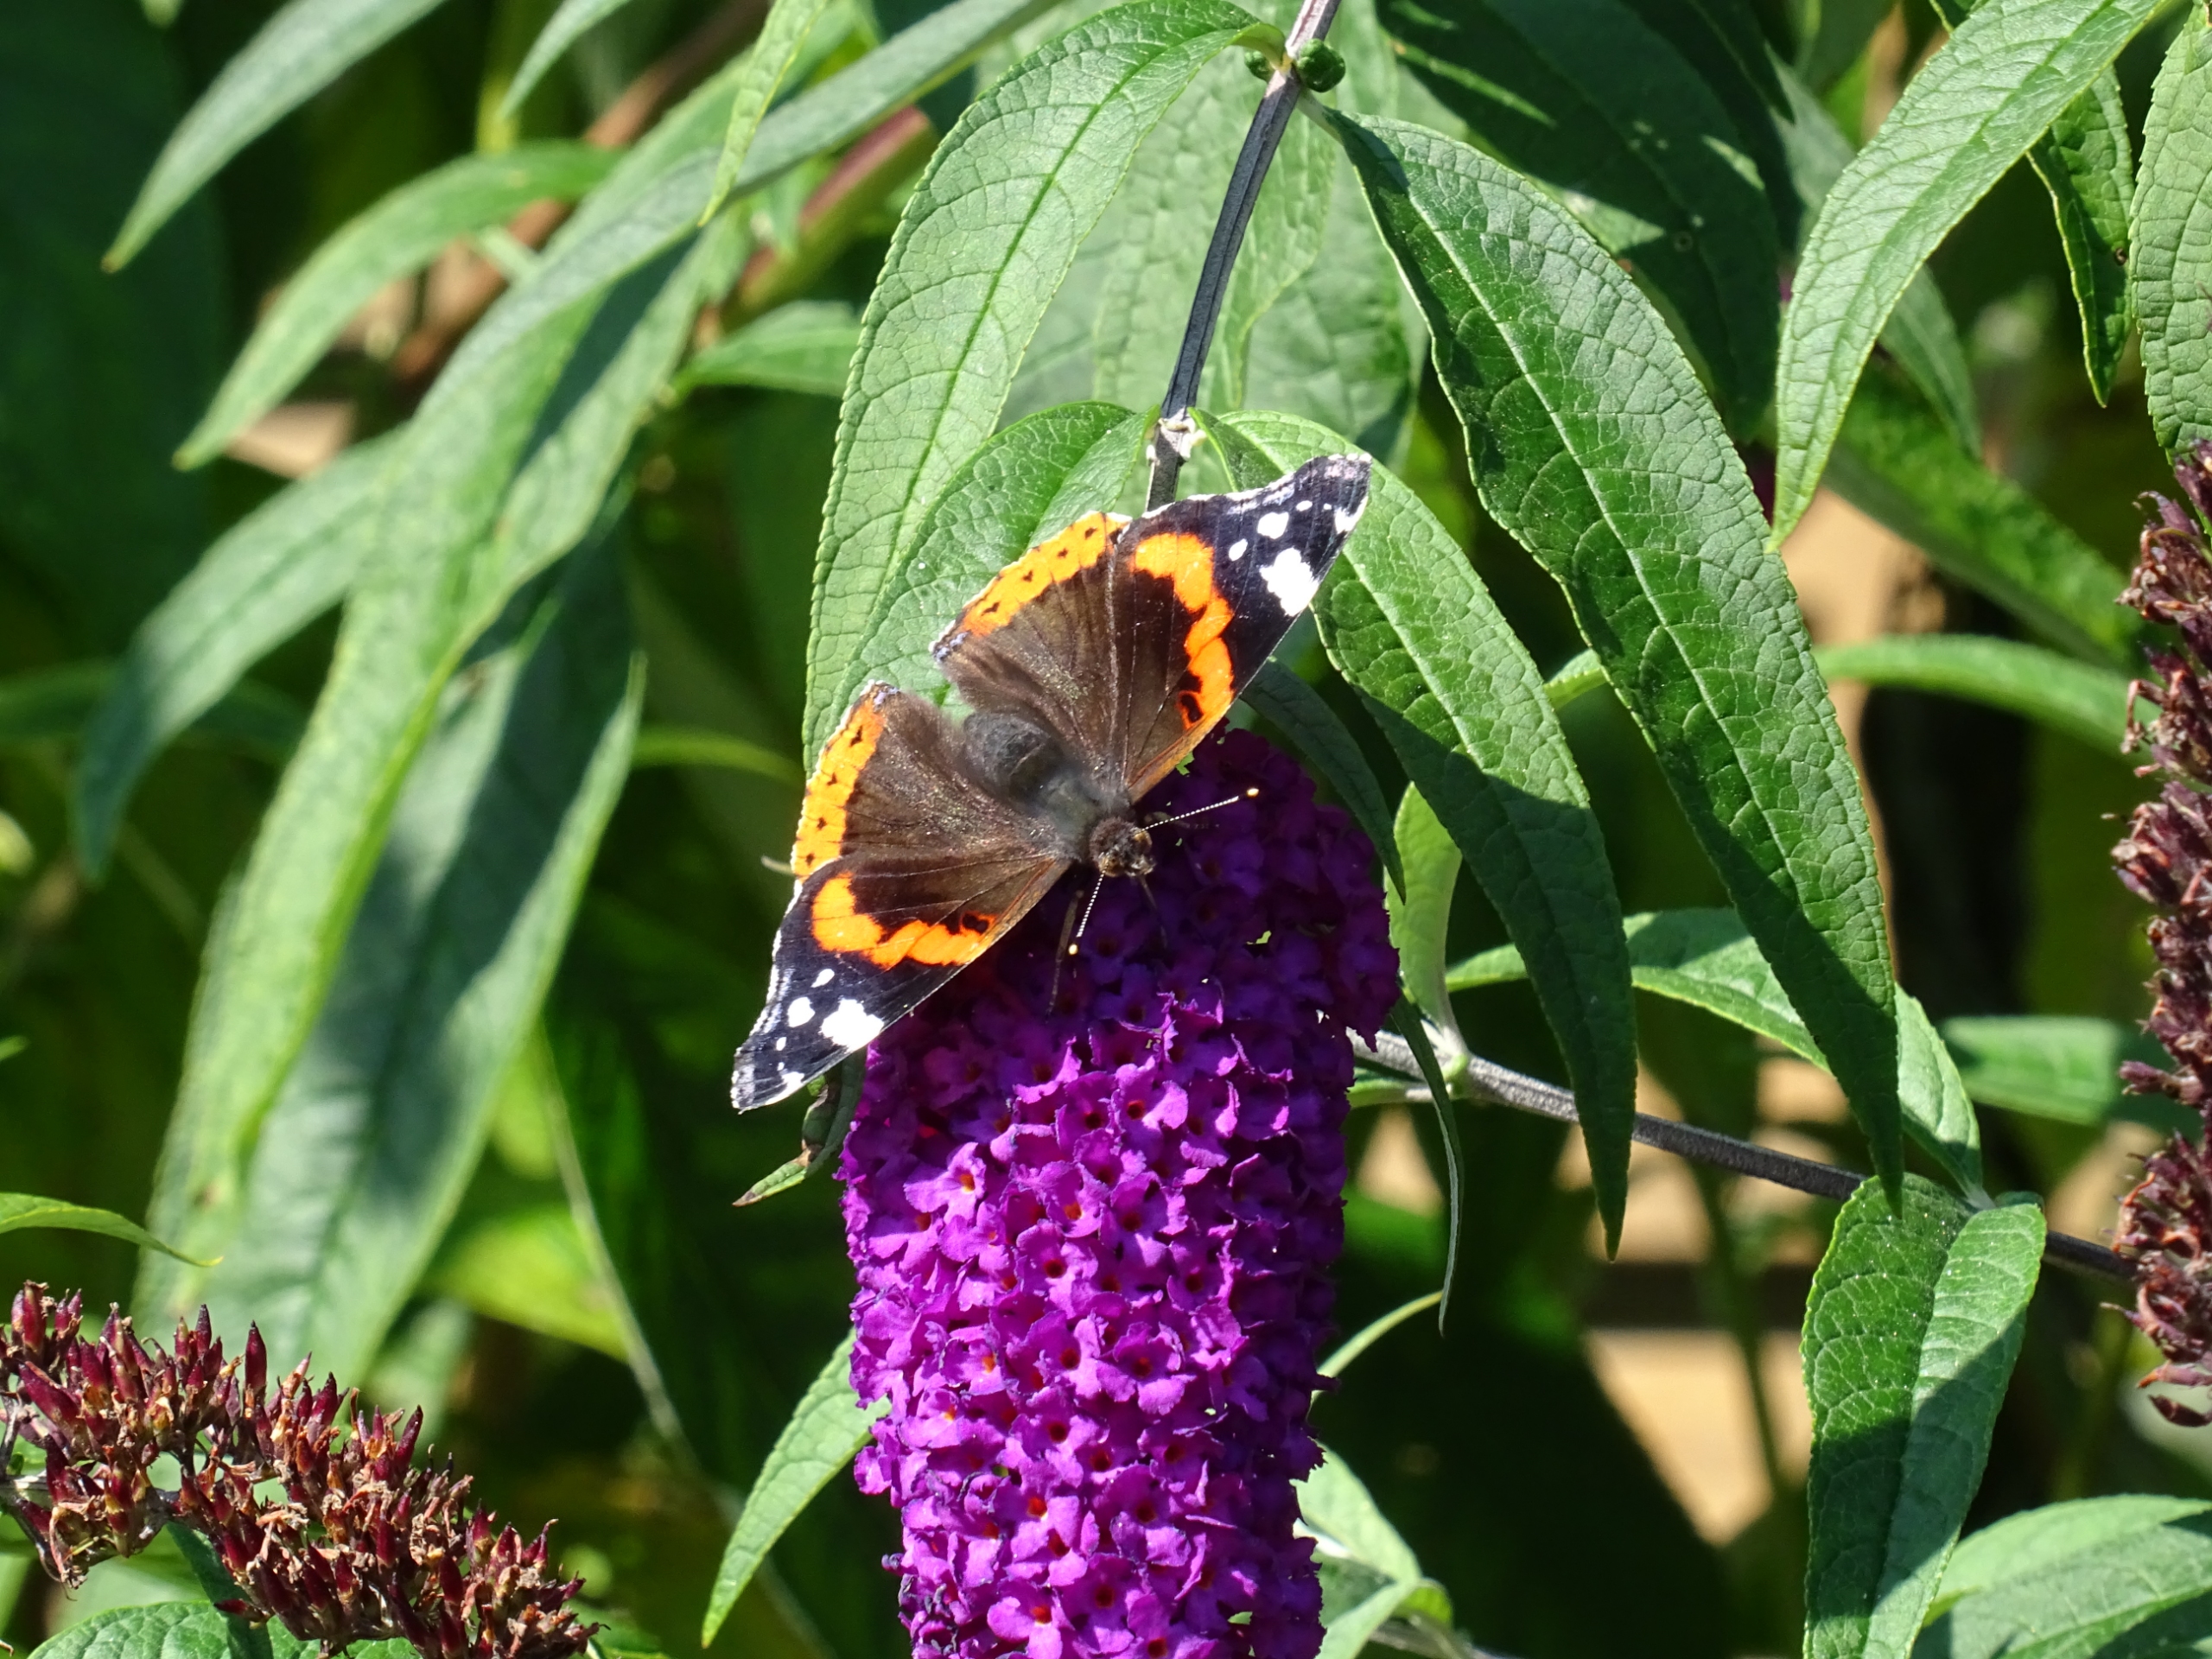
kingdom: Animalia
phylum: Arthropoda
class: Insecta
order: Lepidoptera
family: Nymphalidae
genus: Vanessa
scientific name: Vanessa atalanta
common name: Admiral
